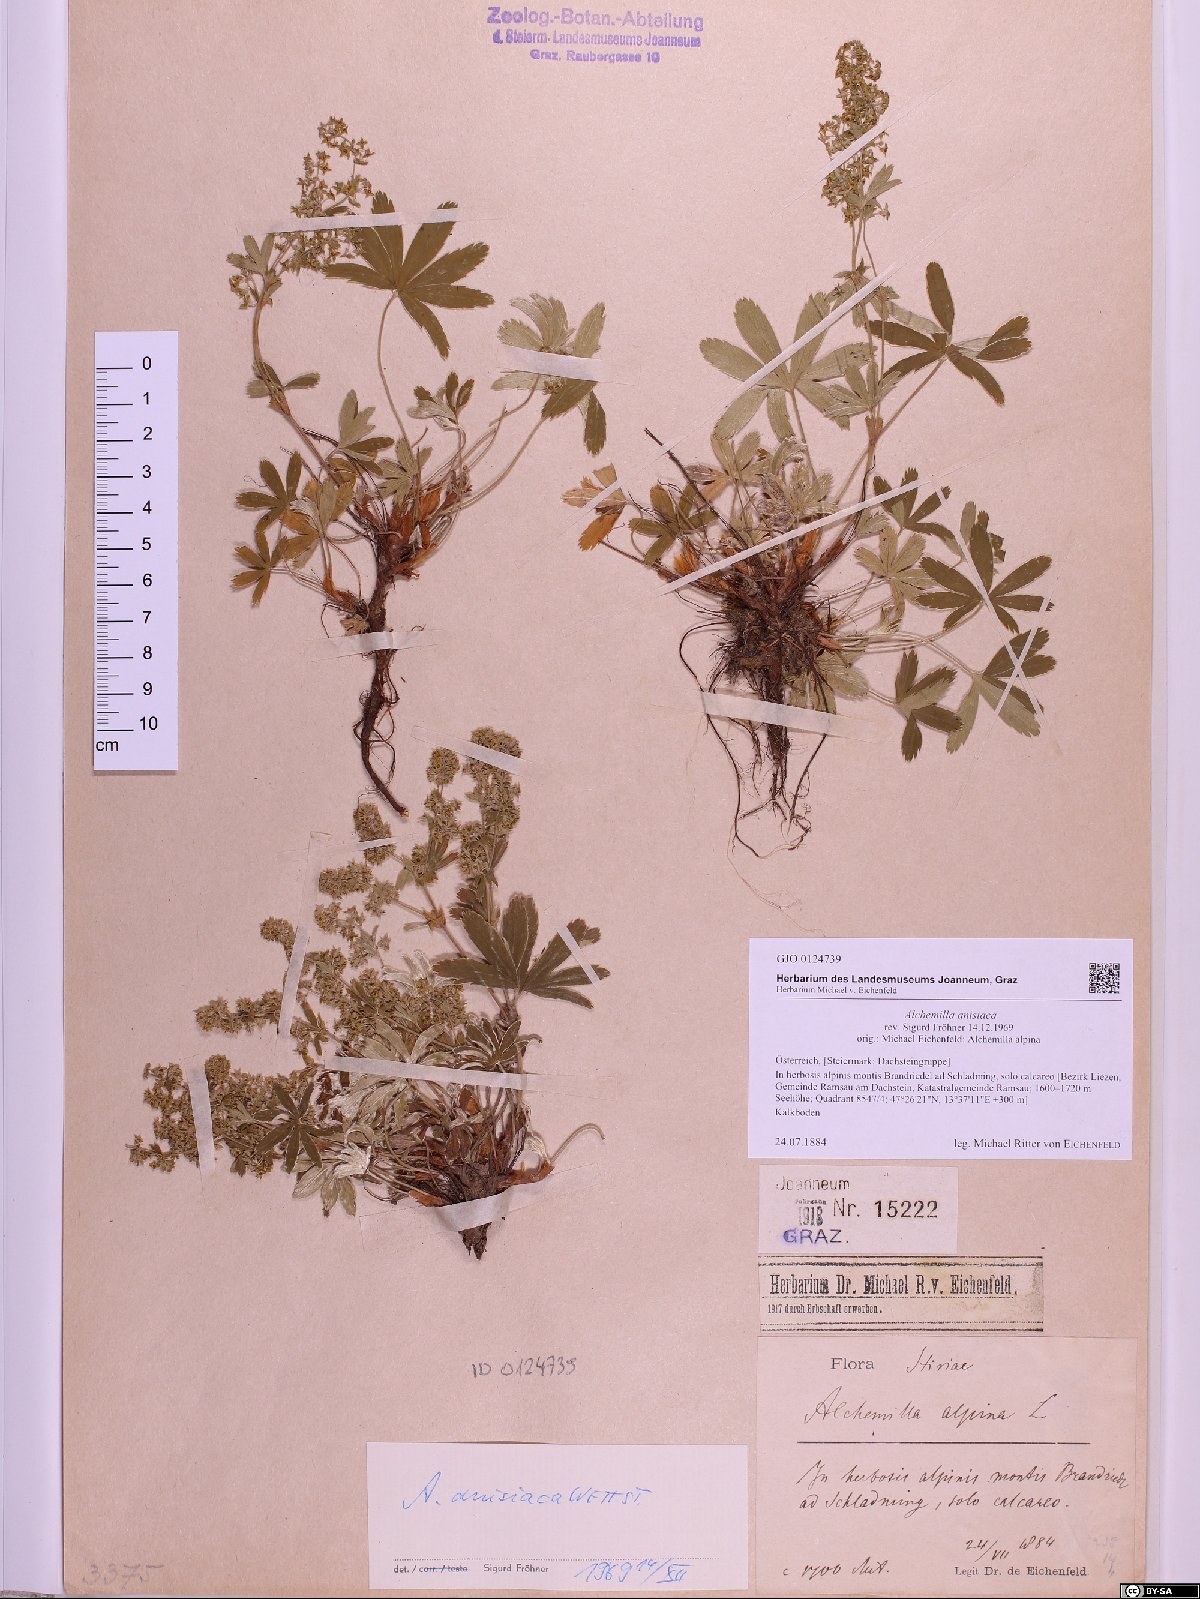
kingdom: Plantae
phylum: Tracheophyta
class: Magnoliopsida
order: Rosales
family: Rosaceae
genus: Alchemilla
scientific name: Alchemilla anisiaca
